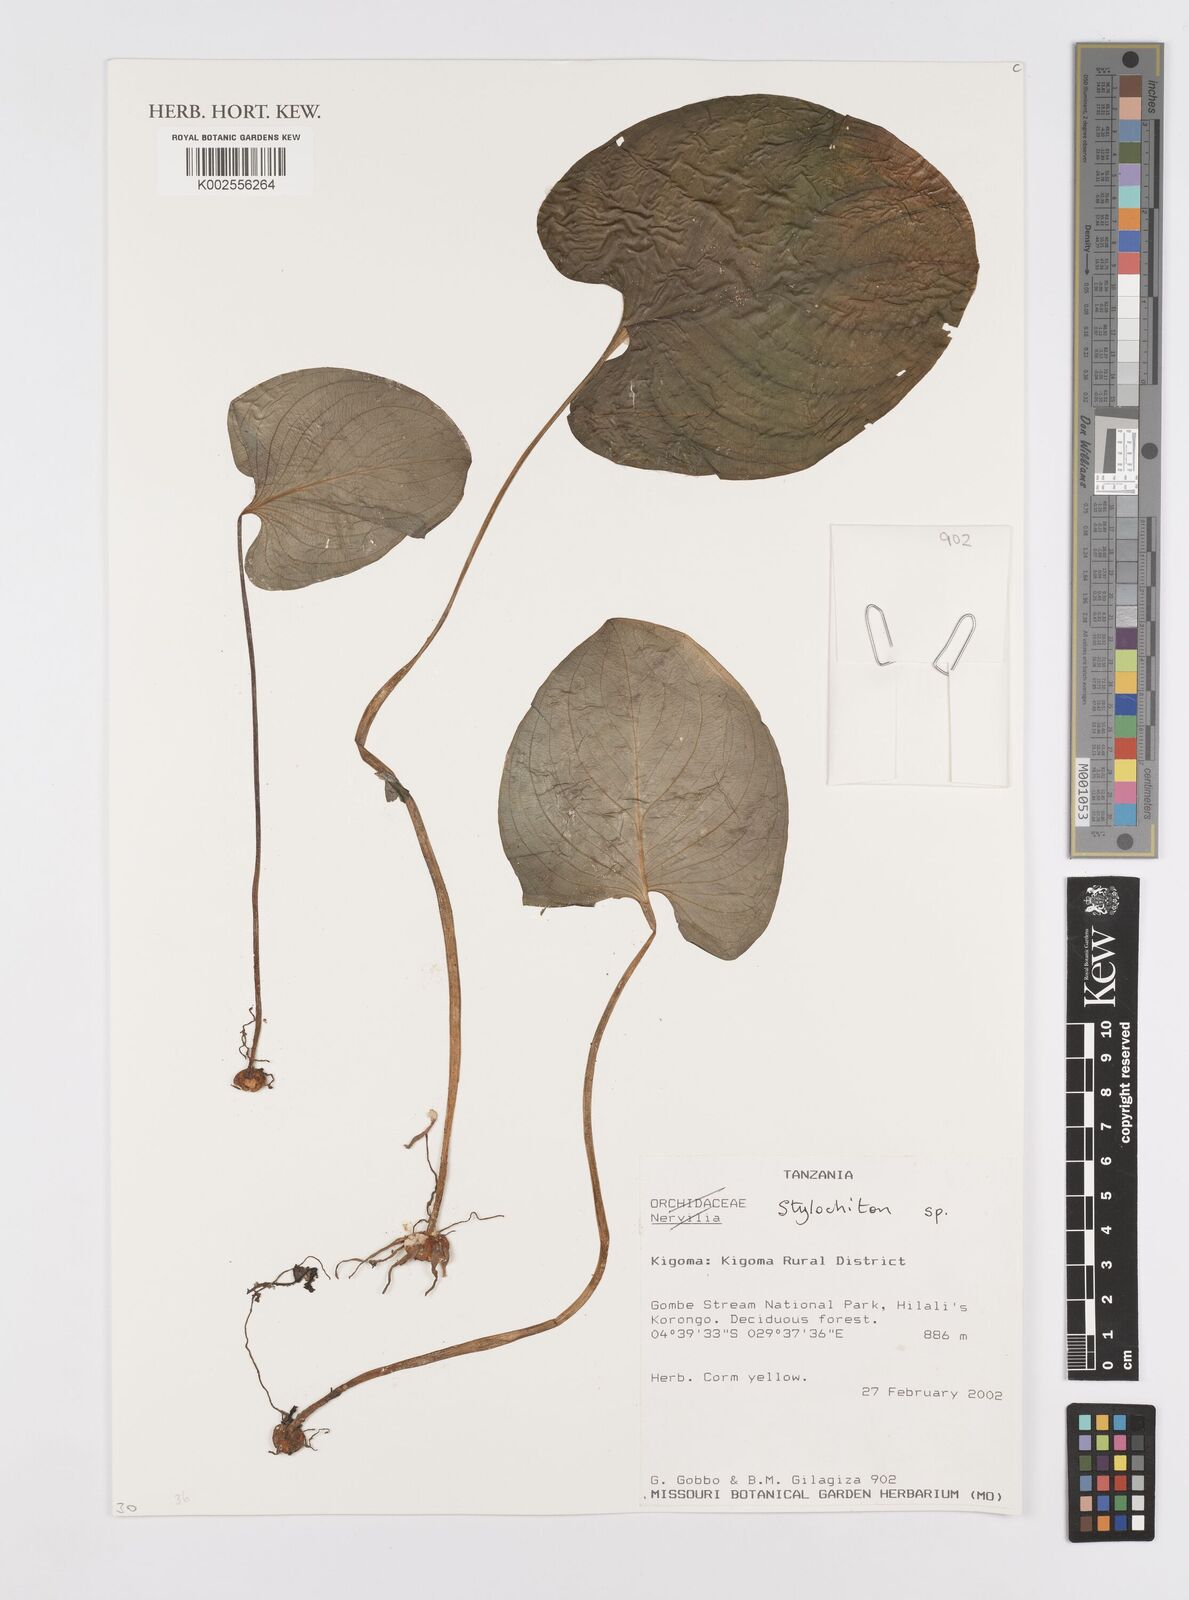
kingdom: Plantae
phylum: Tracheophyta
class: Liliopsida
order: Alismatales
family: Araceae
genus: Stylochaeton
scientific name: Stylochaeton
